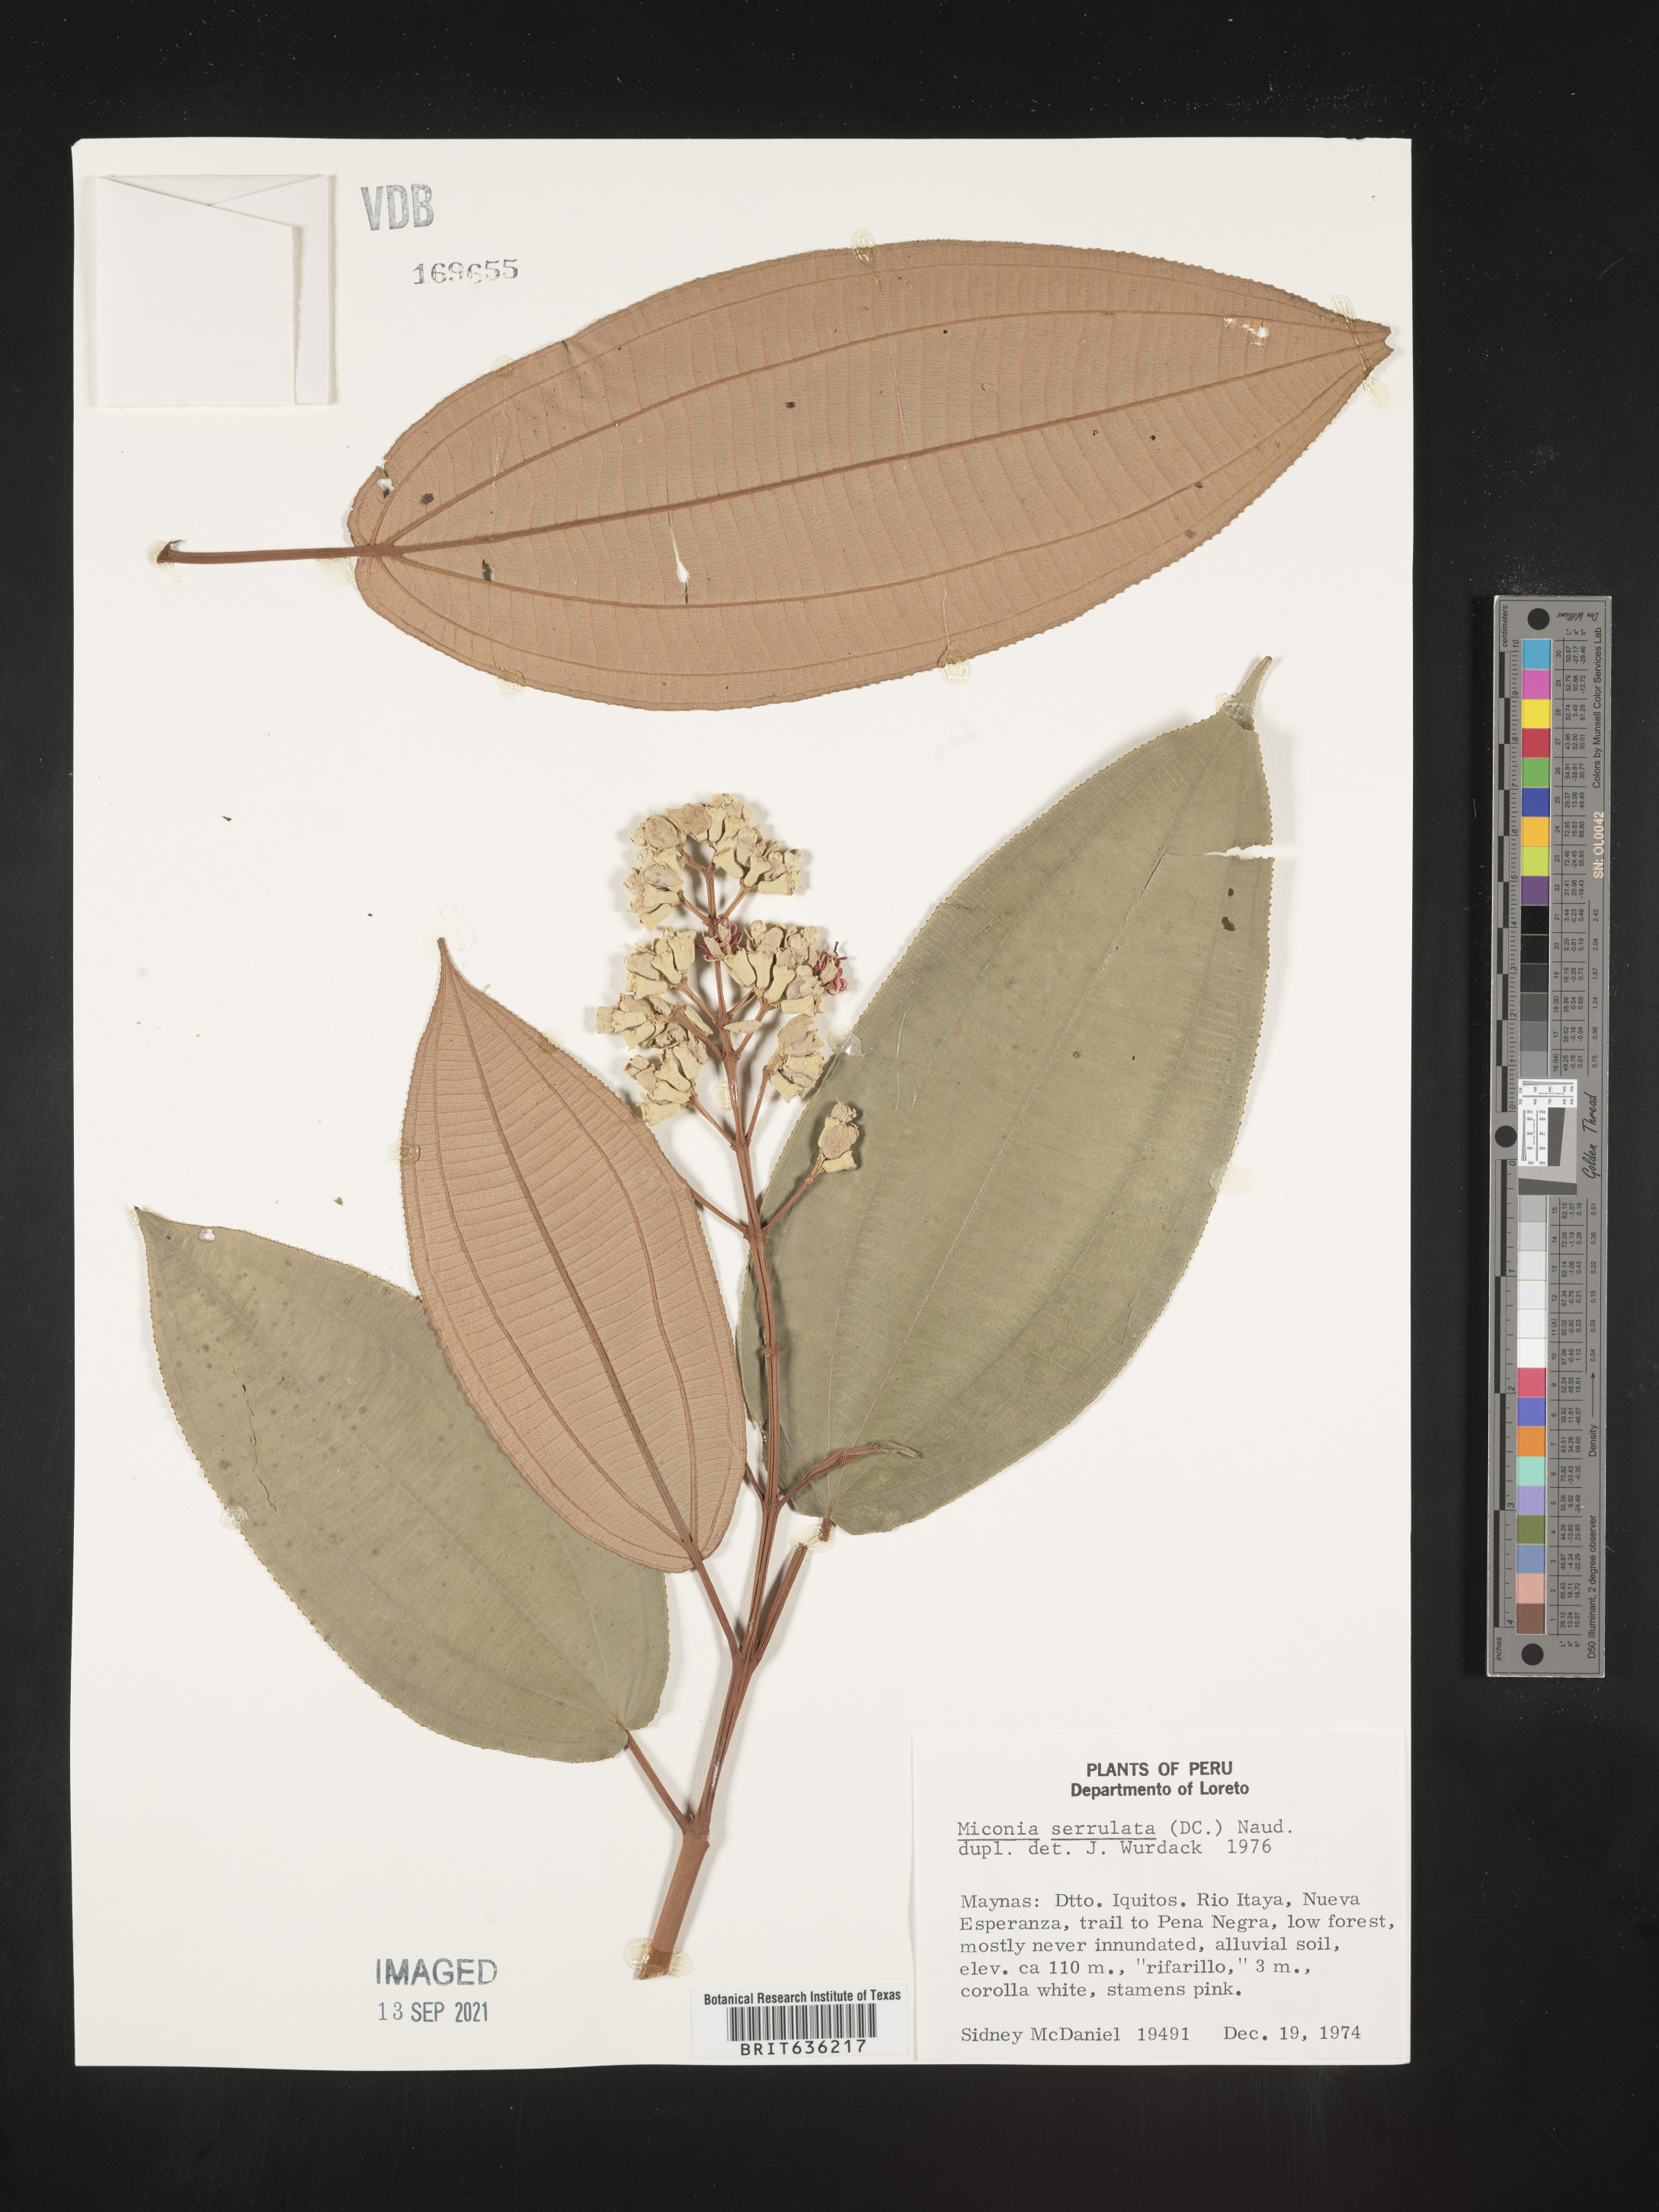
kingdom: Plantae
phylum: Tracheophyta
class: Magnoliopsida
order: Myrtales
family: Melastomataceae
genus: Miconia
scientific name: Miconia
